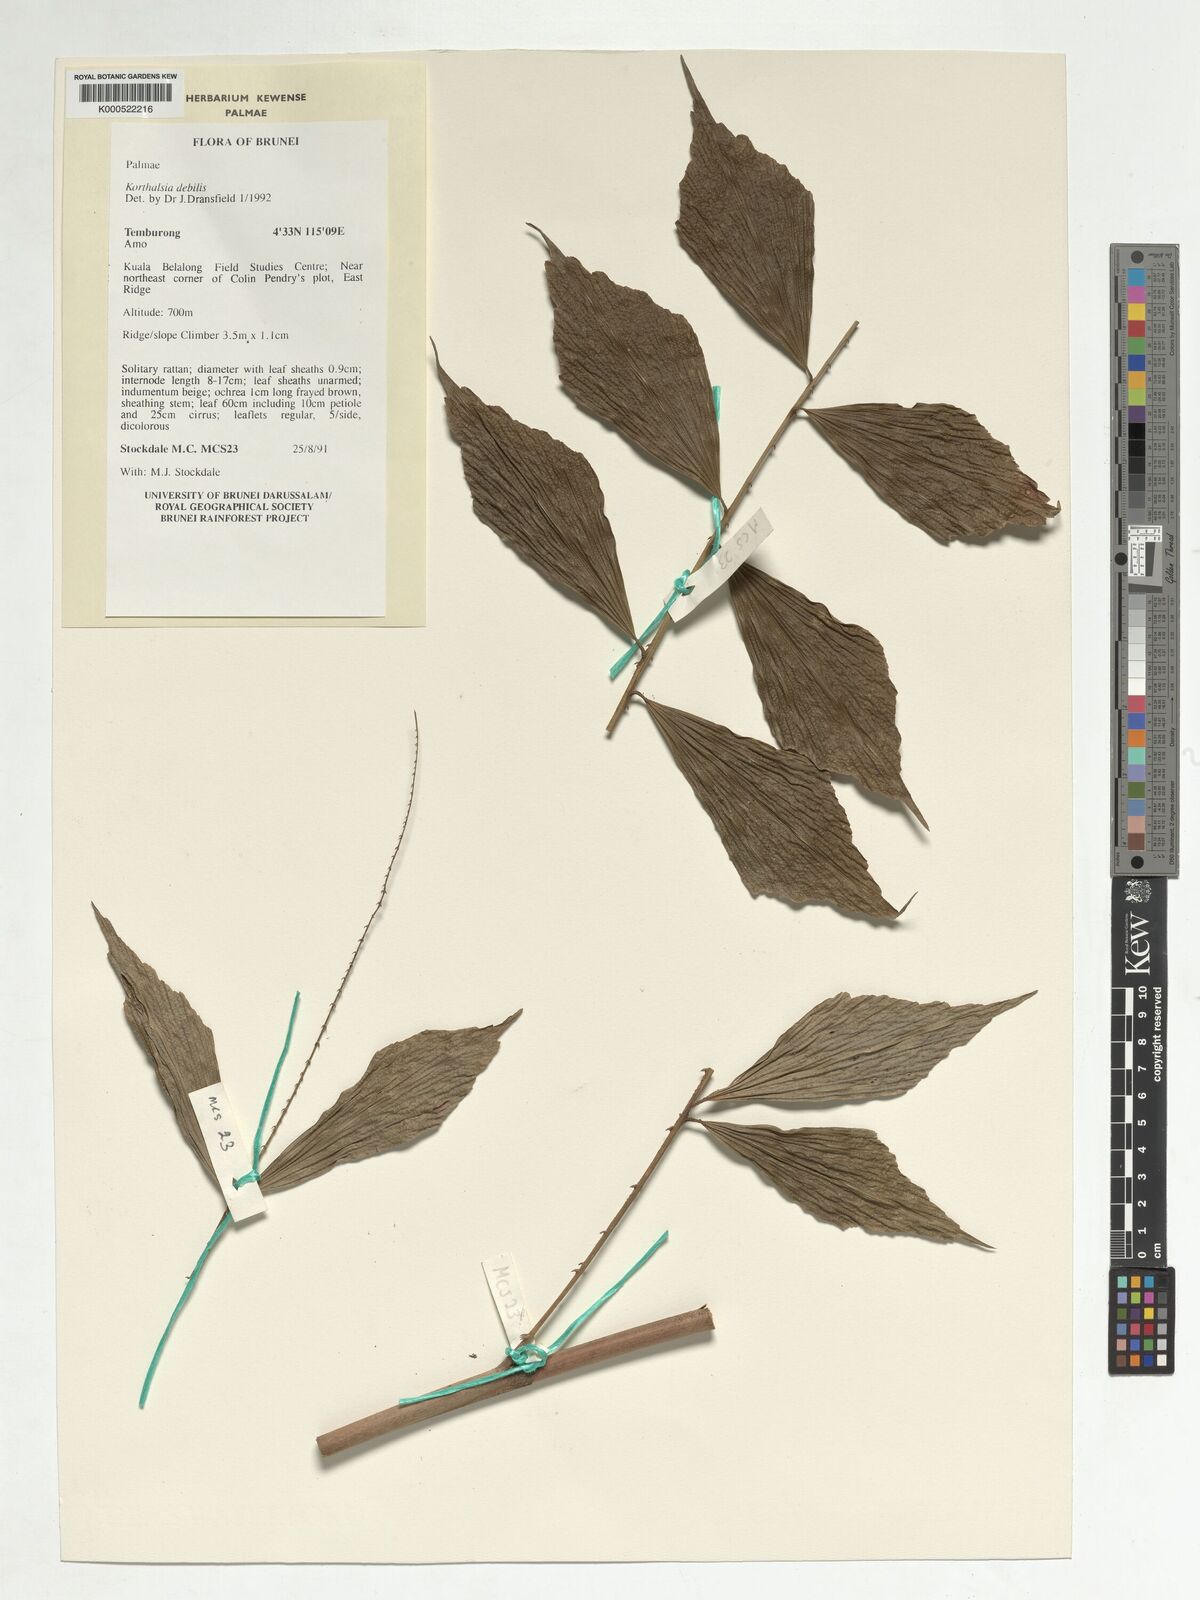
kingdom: Plantae
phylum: Tracheophyta
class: Liliopsida
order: Arecales
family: Arecaceae
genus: Korthalsia
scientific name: Korthalsia debilis
